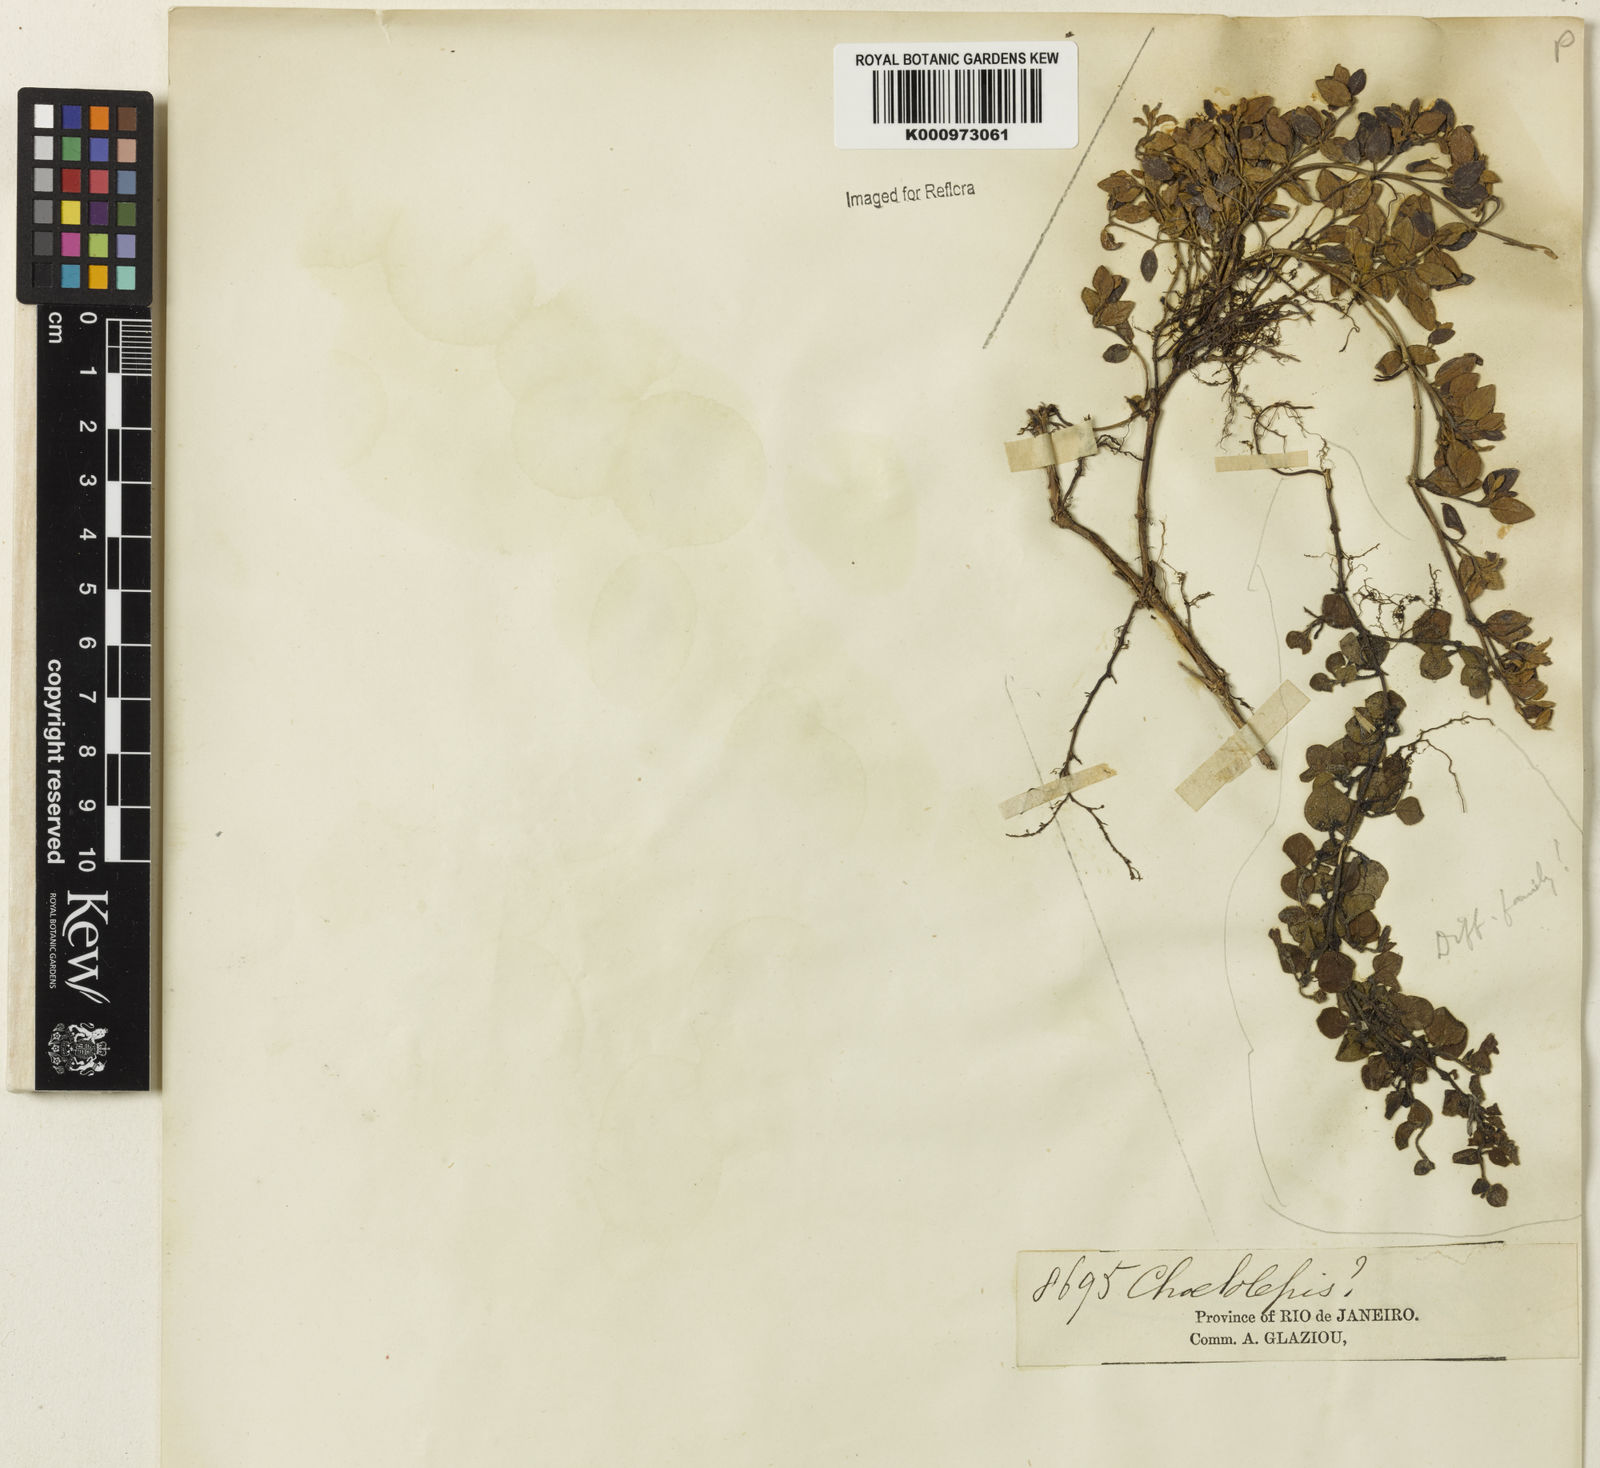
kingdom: Plantae
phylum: Tracheophyta
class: Magnoliopsida
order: Myrtales
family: Melastomataceae
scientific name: Melastomataceae
